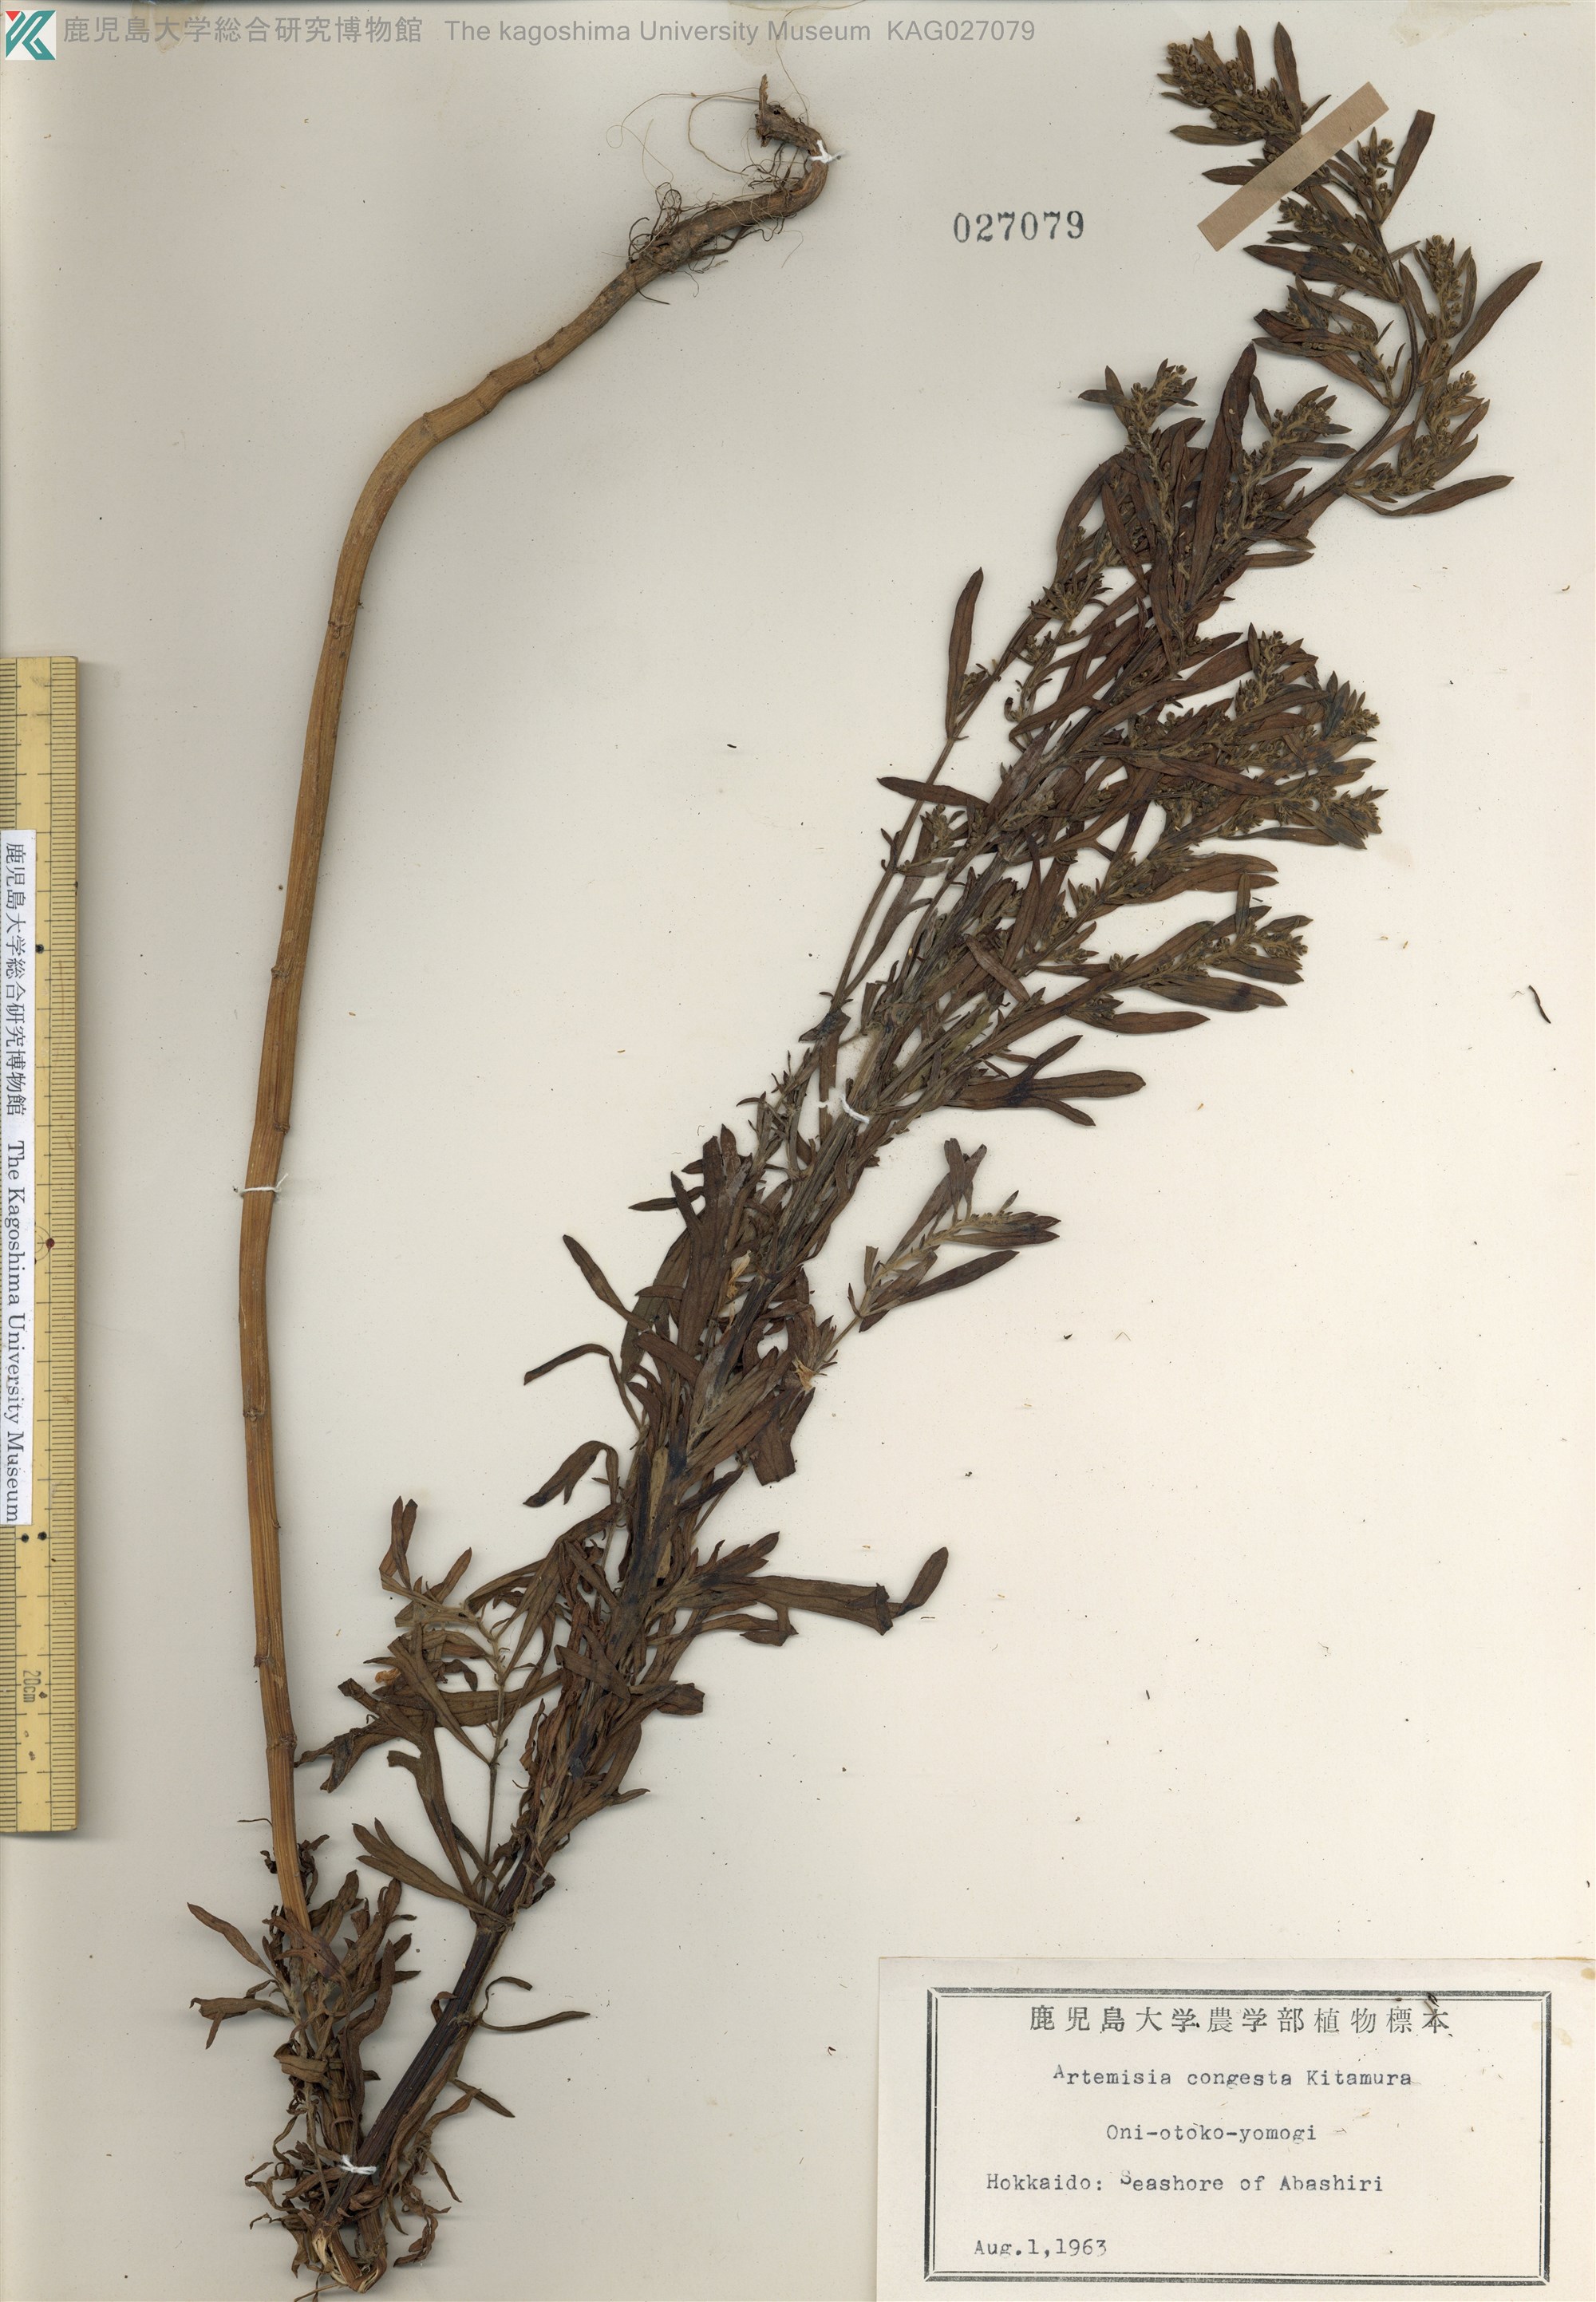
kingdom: Plantae
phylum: Tracheophyta
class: Magnoliopsida
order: Asterales
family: Asteraceae
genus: Artemisia
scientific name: Artemisia capillaris
